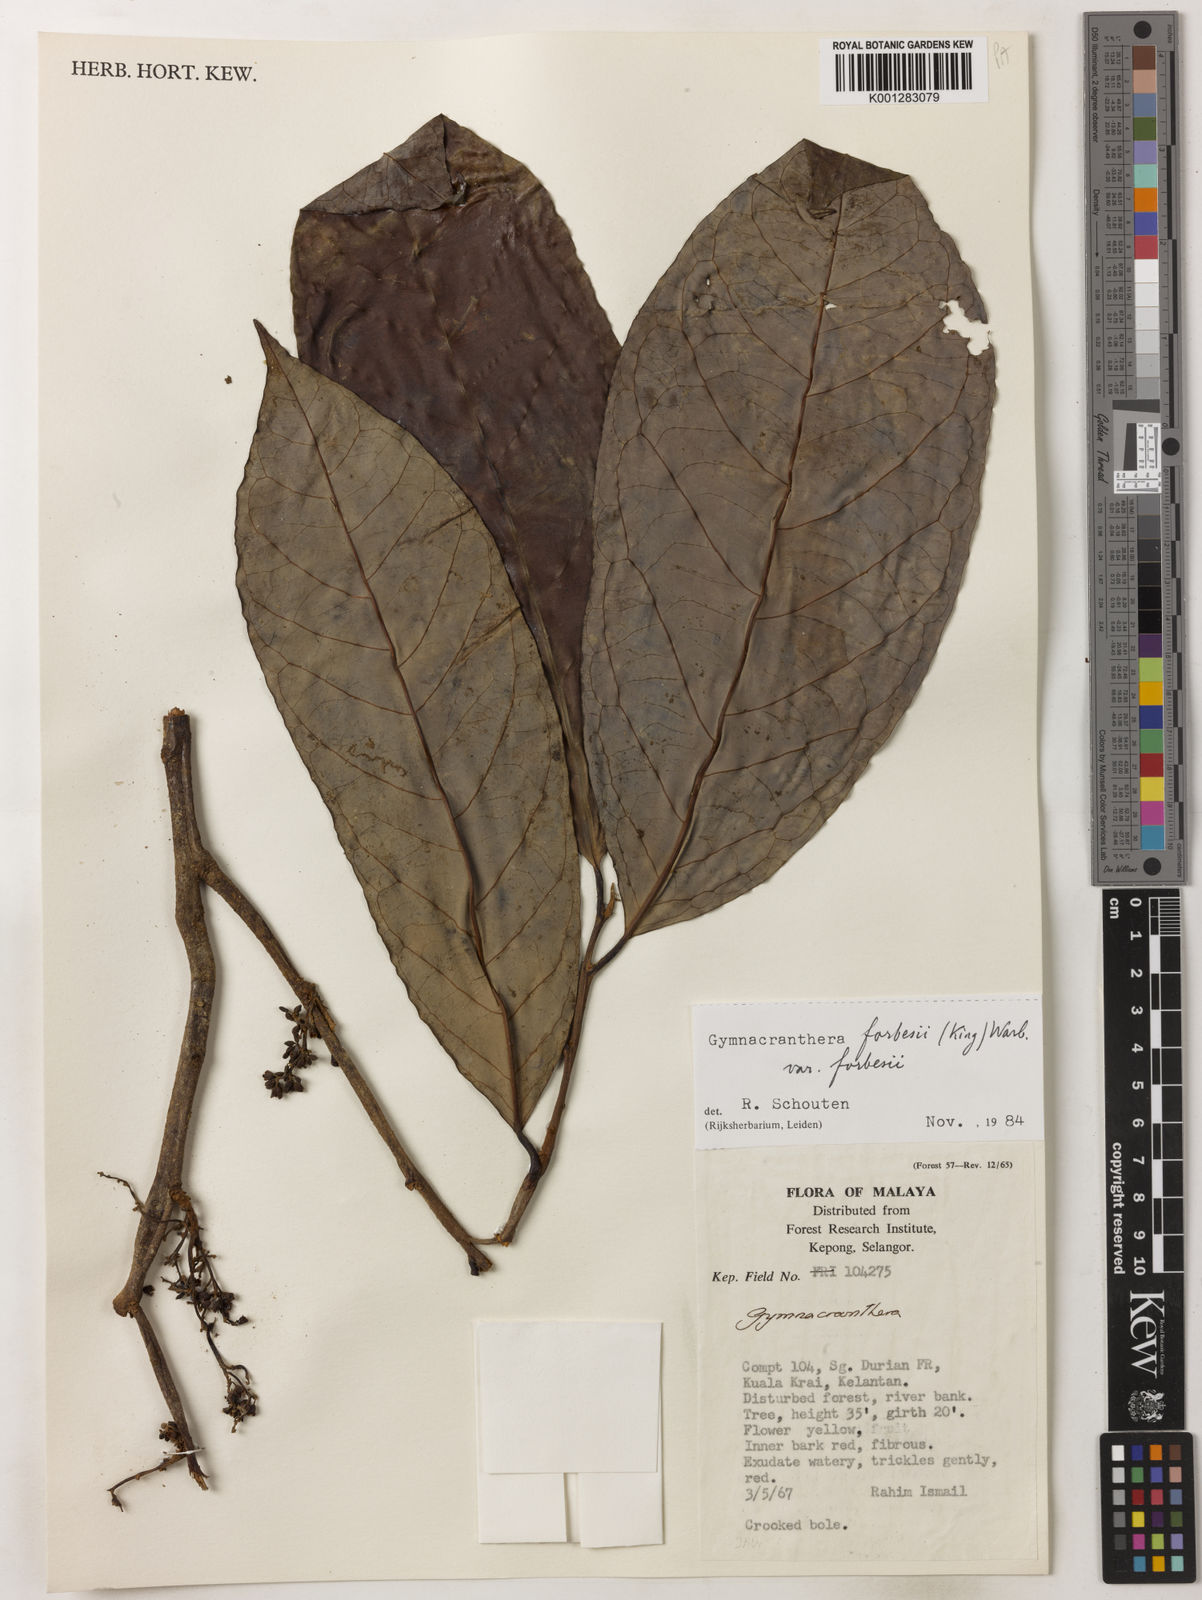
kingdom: Plantae
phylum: Tracheophyta
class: Magnoliopsida
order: Magnoliales
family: Myristicaceae
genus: Gymnacranthera
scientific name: Gymnacranthera forbesii
